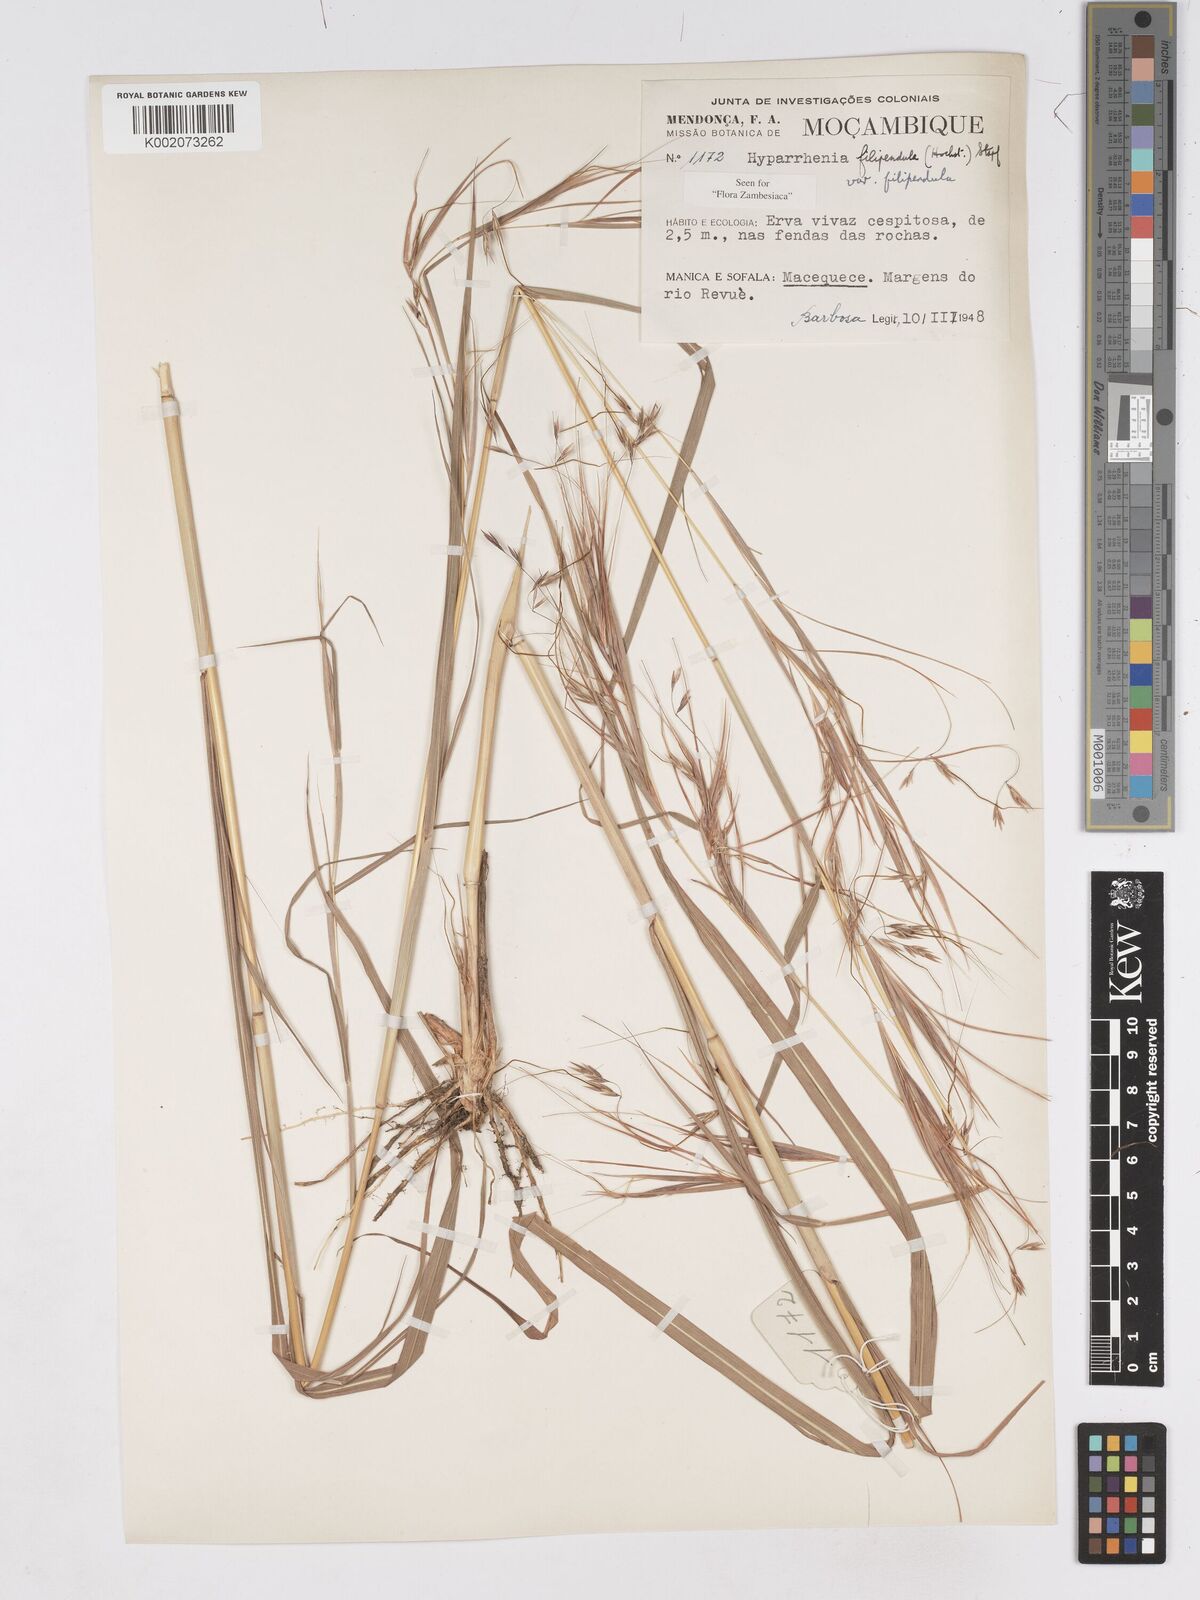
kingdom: Plantae
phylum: Tracheophyta
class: Liliopsida
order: Poales
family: Poaceae
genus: Hyparrhenia
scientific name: Hyparrhenia filipendula
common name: Tambookie grass
